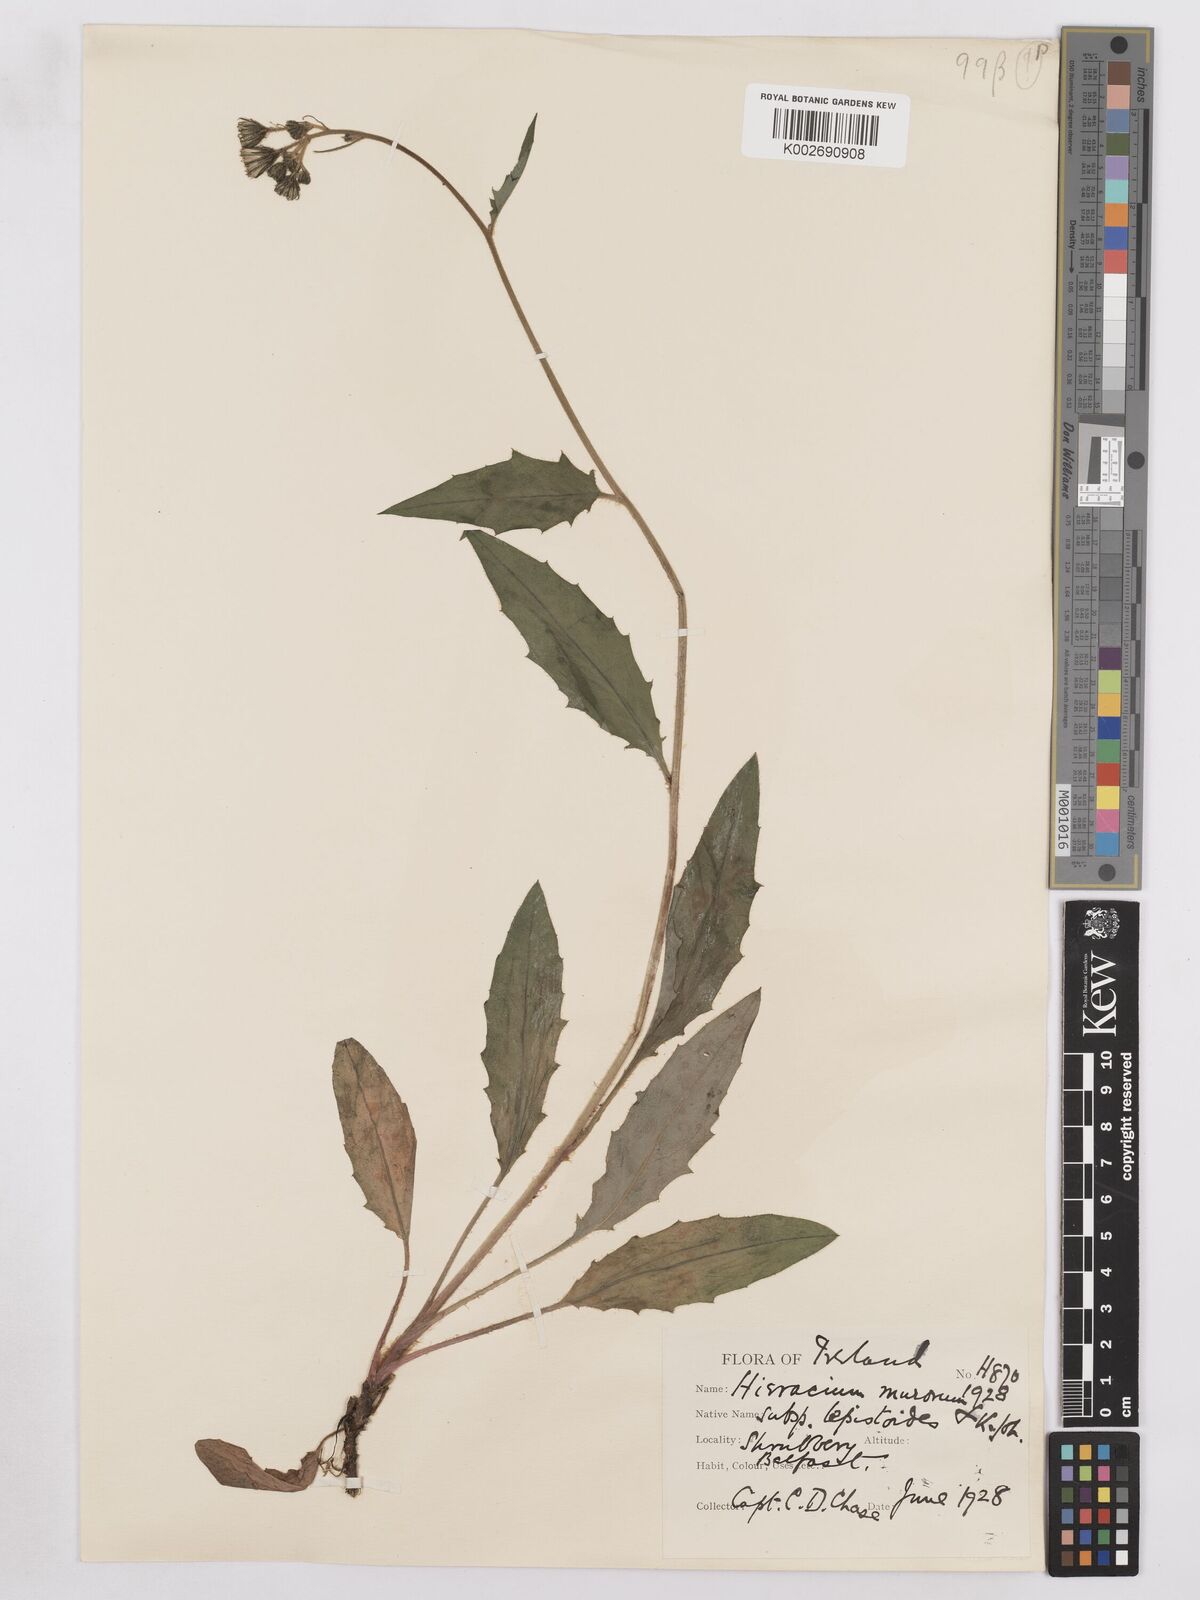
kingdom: Plantae
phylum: Tracheophyta
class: Magnoliopsida
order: Asterales
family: Asteraceae
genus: Hieracium
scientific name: Hieracium murorum
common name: Wall hawkweed
